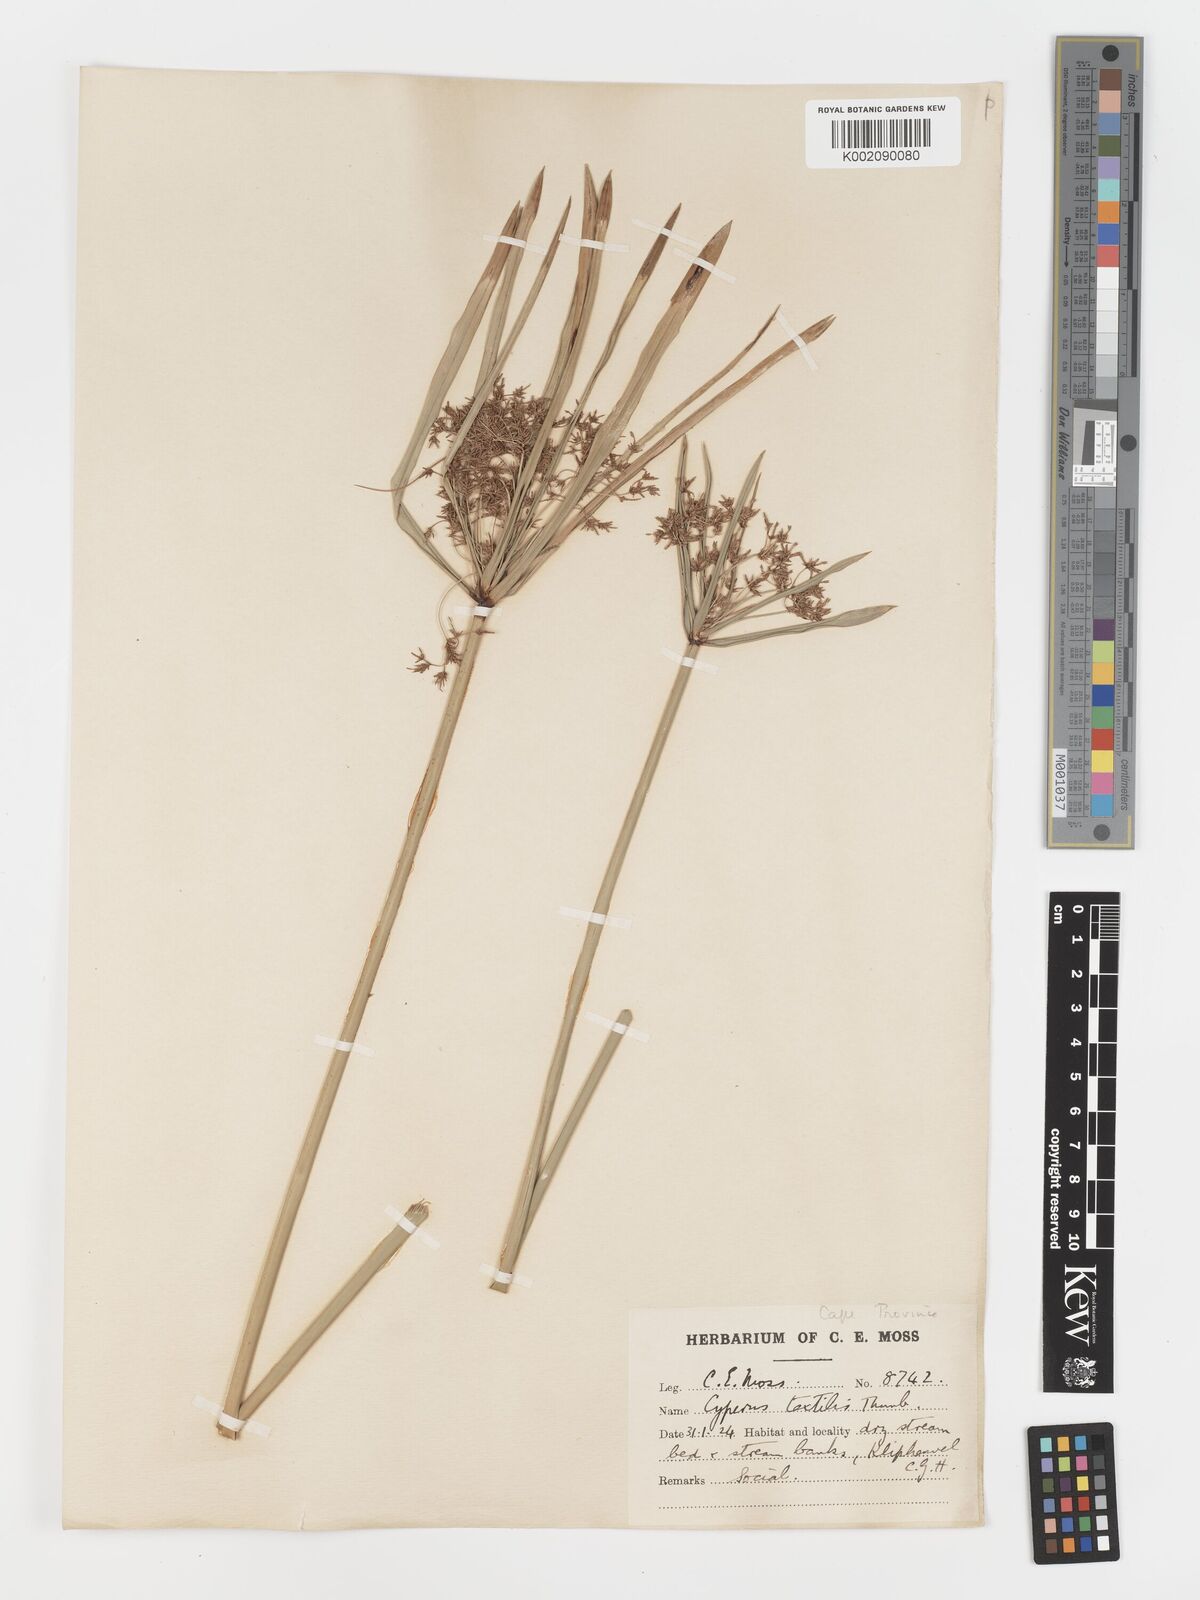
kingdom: Plantae
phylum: Tracheophyta
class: Liliopsida
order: Poales
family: Cyperaceae
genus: Cyperus
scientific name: Cyperus alternifolius
